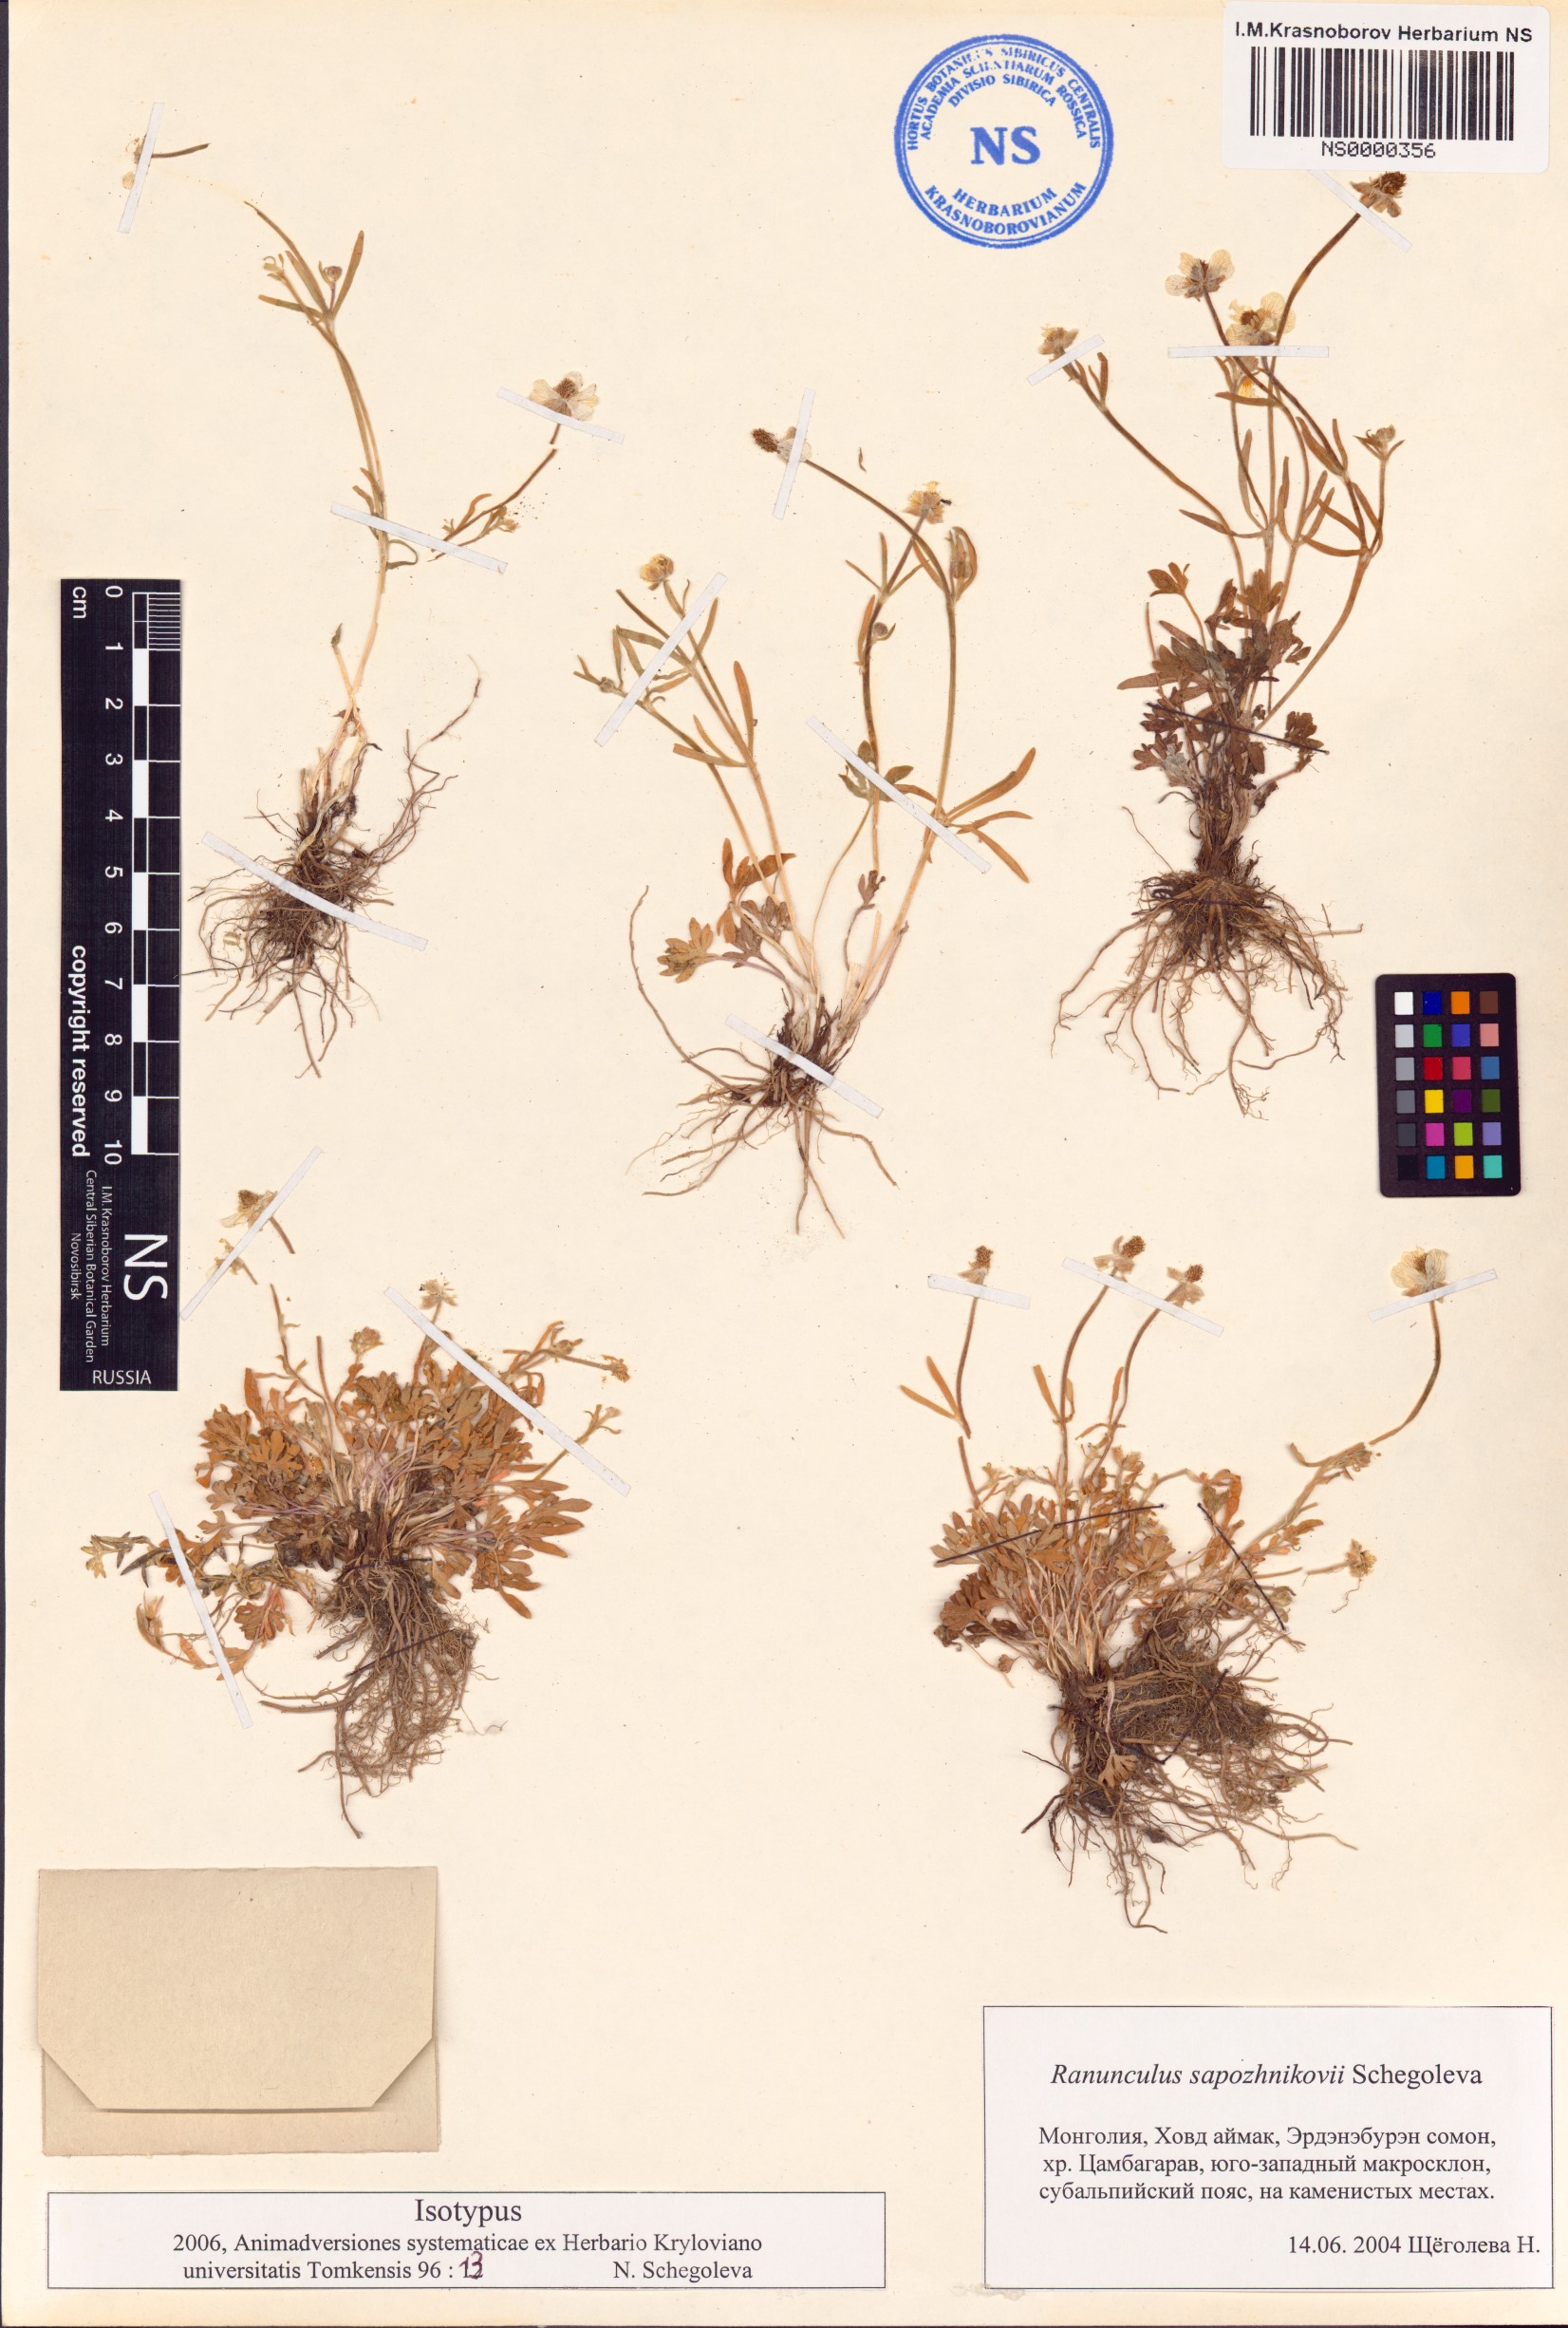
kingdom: Plantae
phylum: Tracheophyta
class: Magnoliopsida
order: Ranunculales
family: Ranunculaceae
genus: Ranunculus
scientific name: Ranunculus sapozhnikovii
